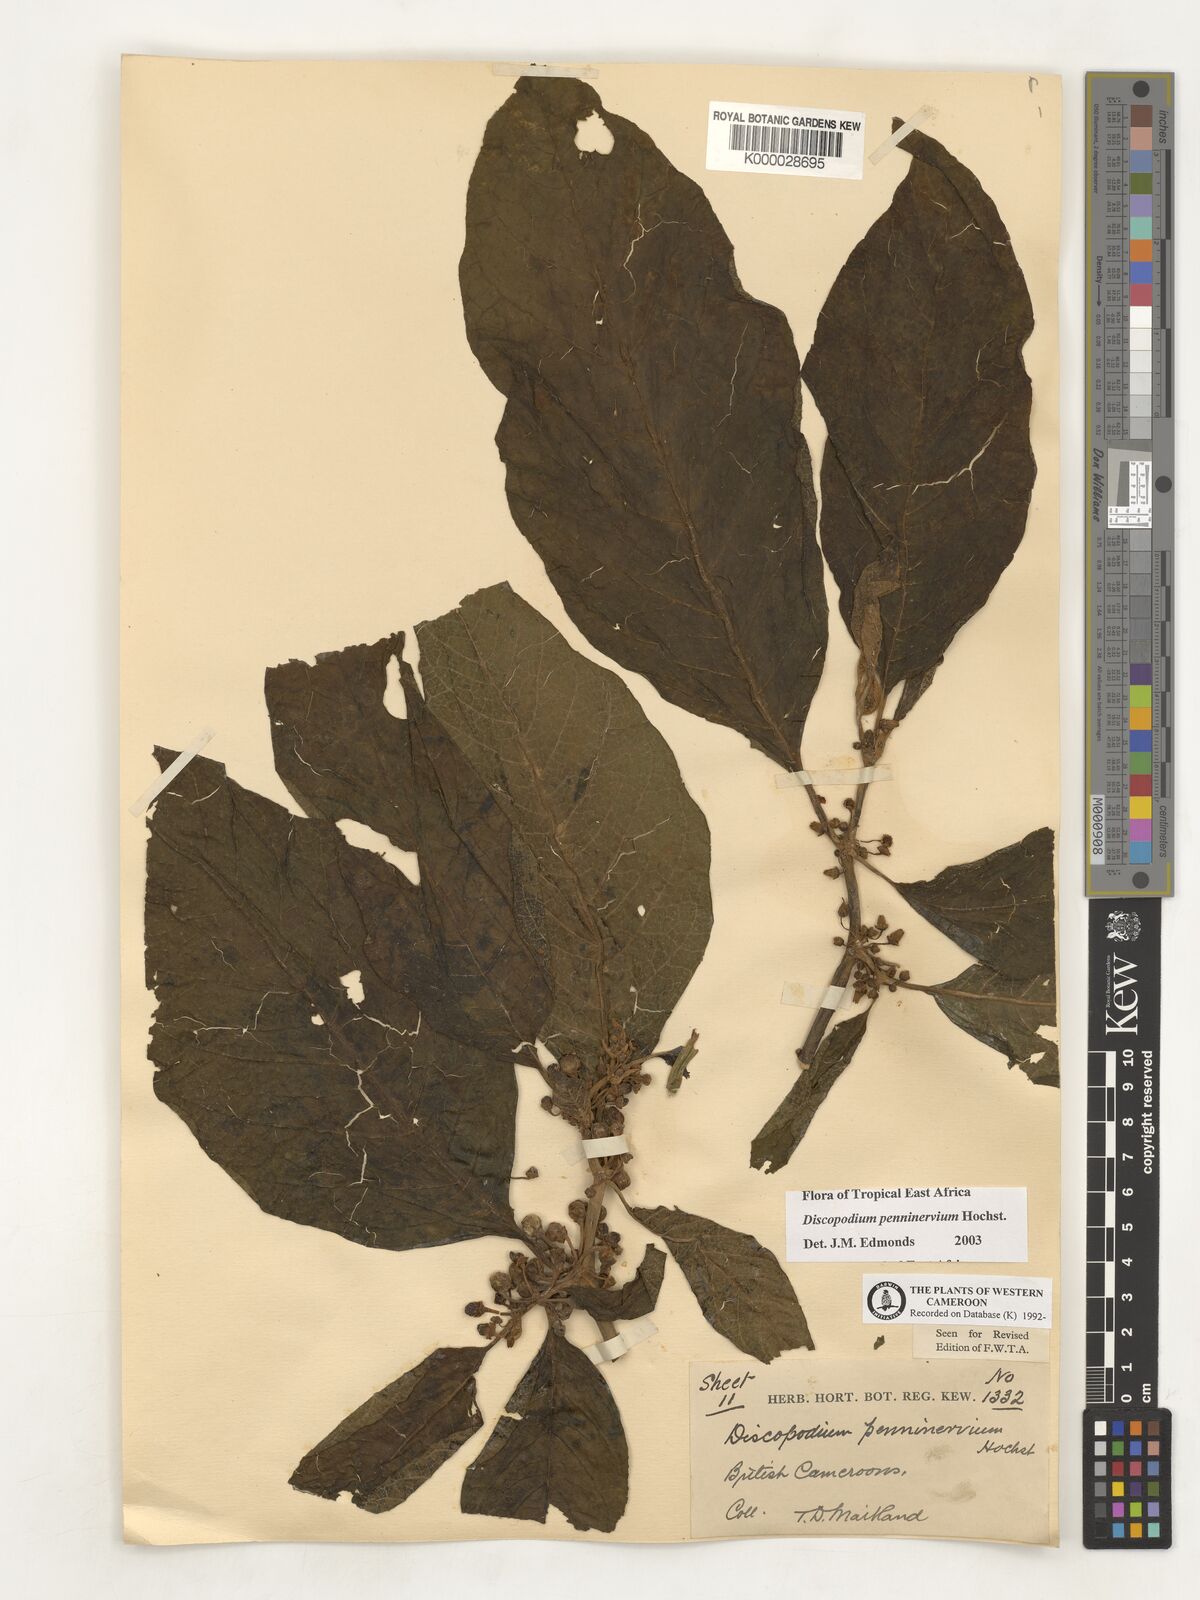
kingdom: Plantae
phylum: Tracheophyta
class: Magnoliopsida
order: Solanales
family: Solanaceae
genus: Discopodium
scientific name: Discopodium penninervium
